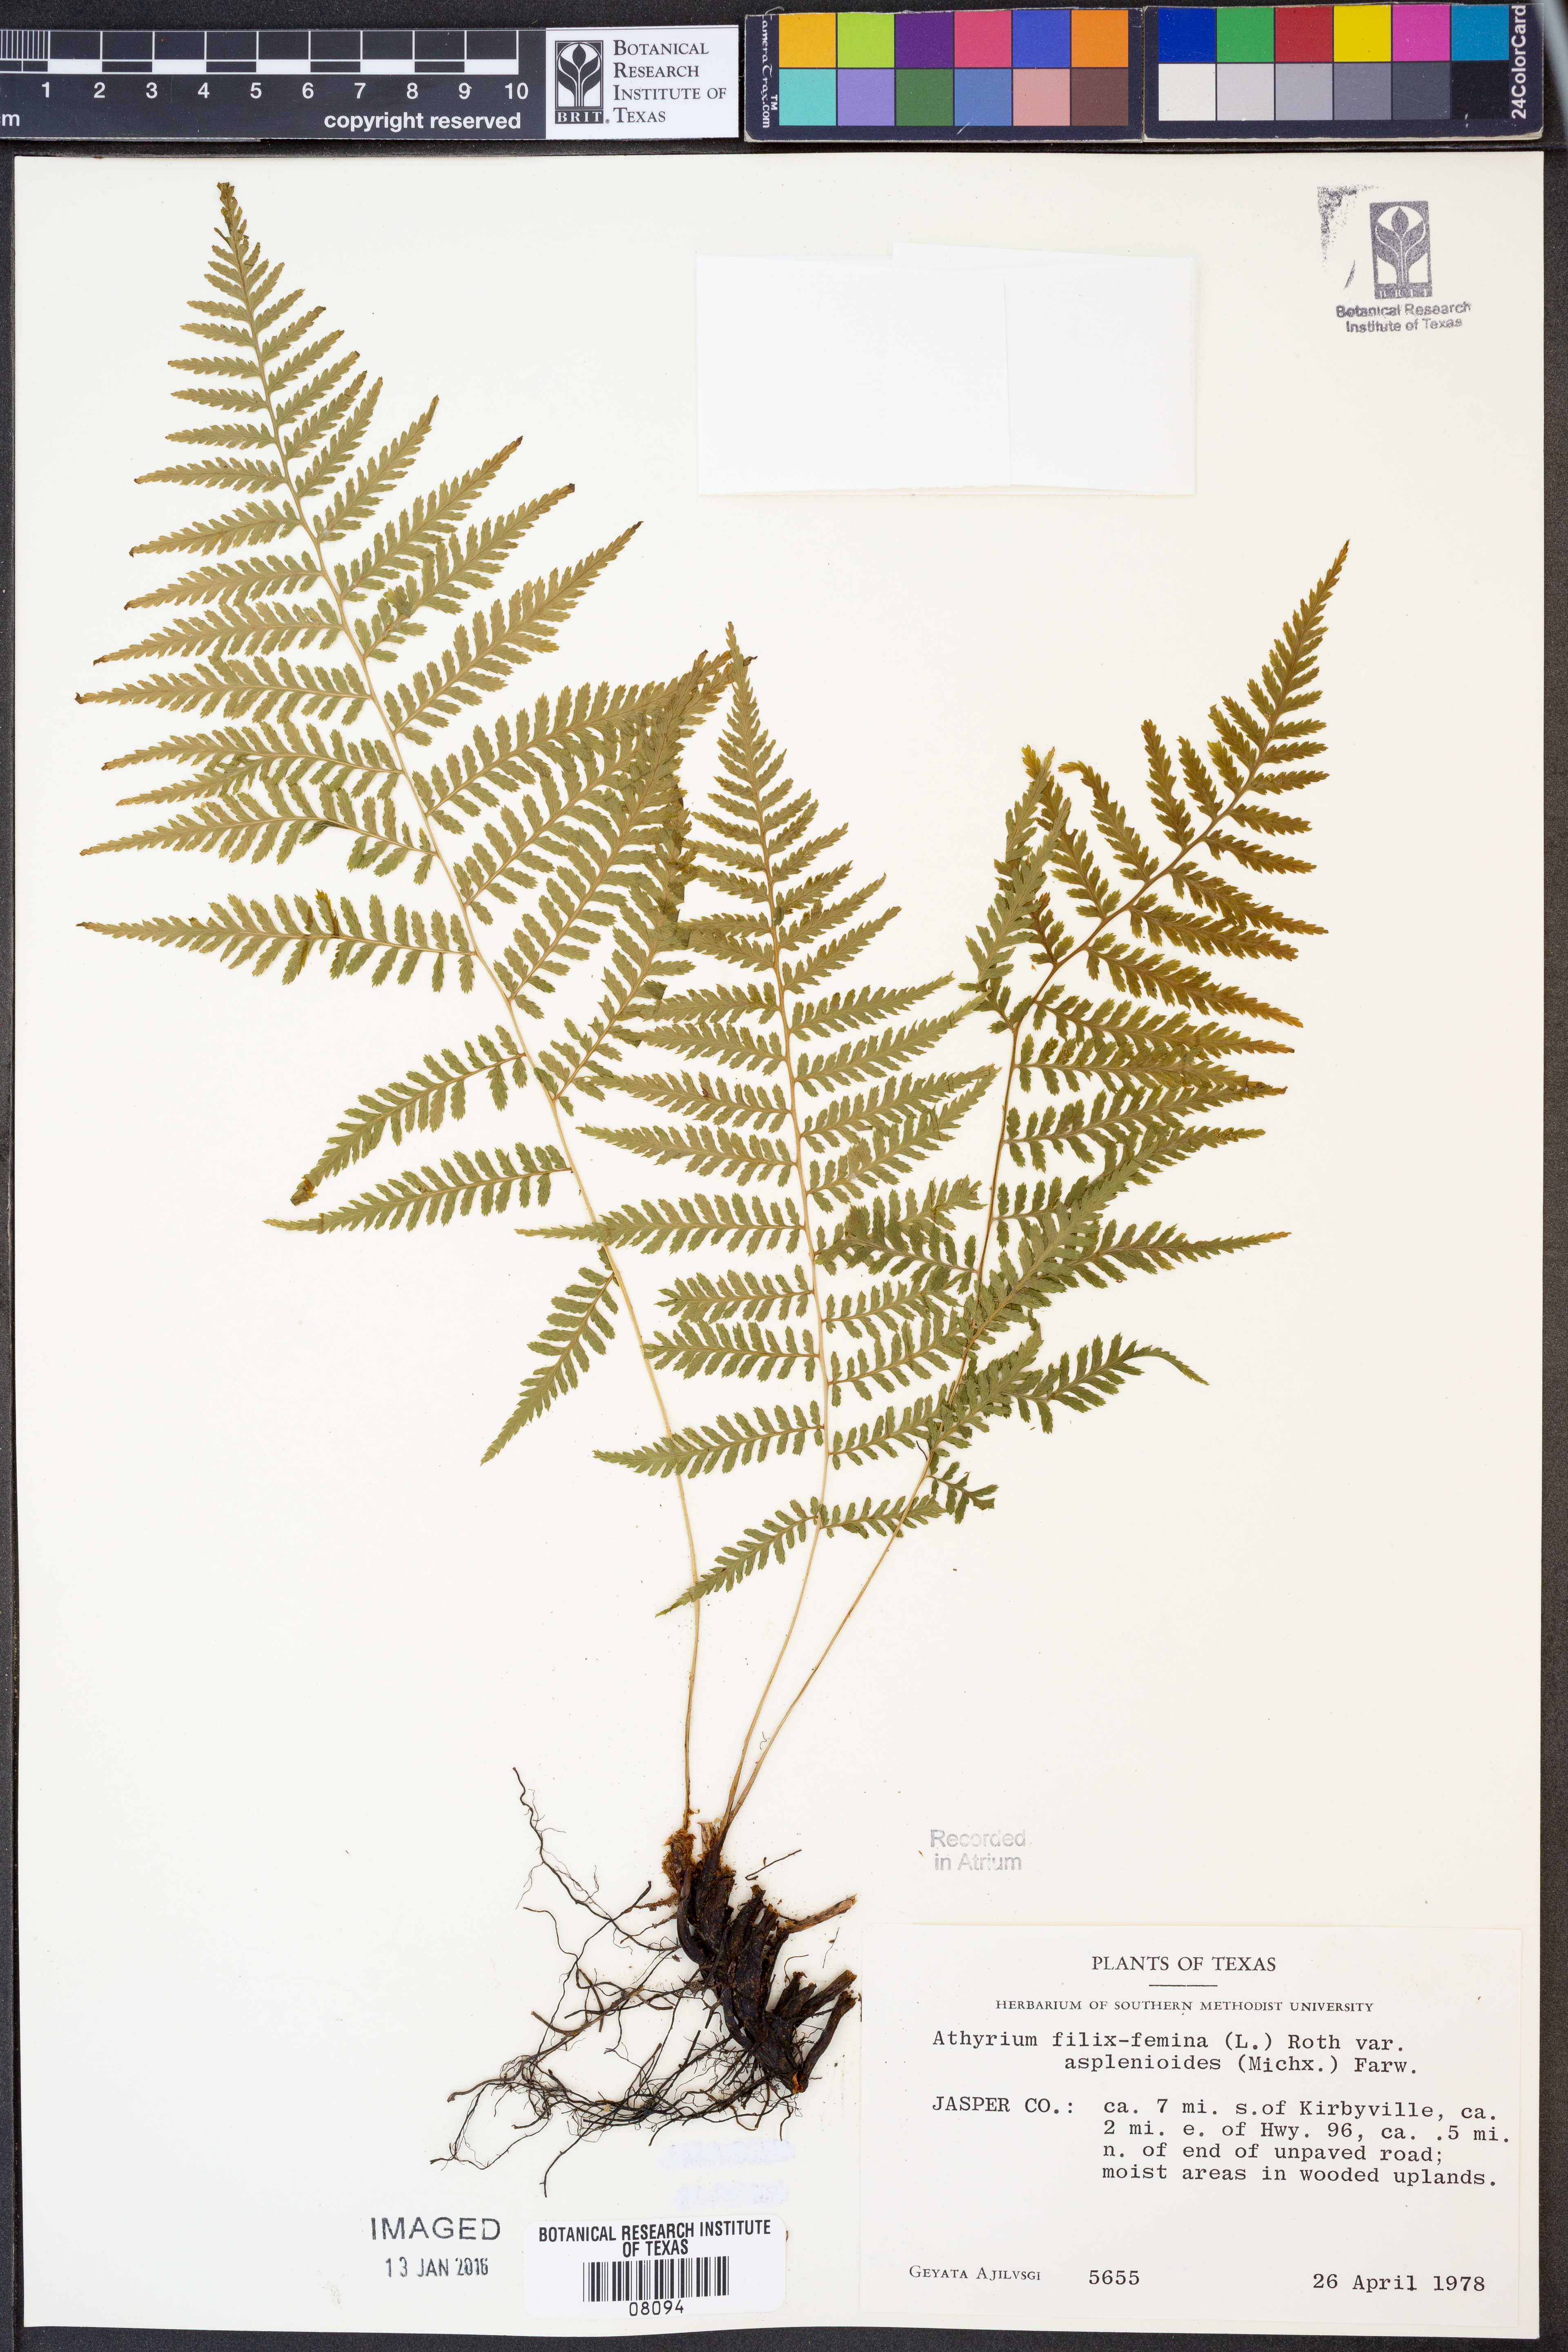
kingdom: Plantae
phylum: Tracheophyta
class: Polypodiopsida
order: Polypodiales
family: Athyriaceae
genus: Athyrium
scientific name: Athyrium asplenioides
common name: Southern lady fern
